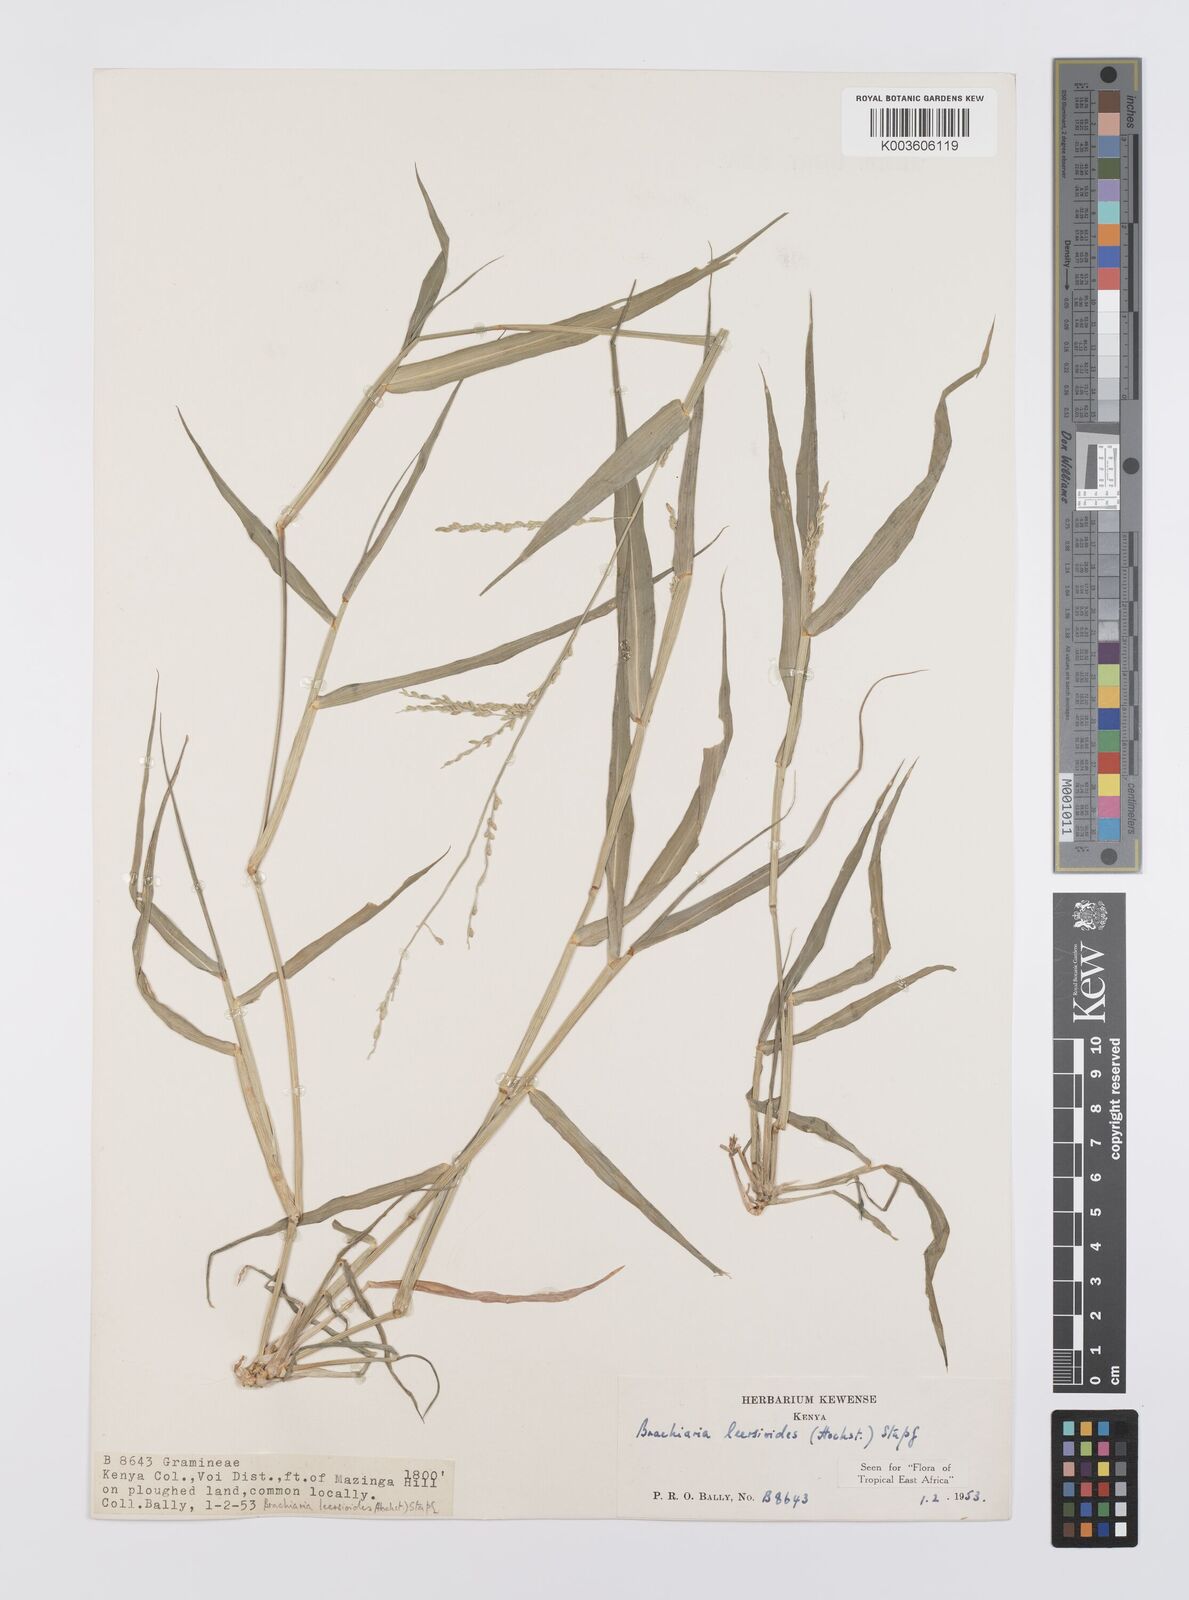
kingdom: Plantae
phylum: Tracheophyta
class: Liliopsida
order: Poales
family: Poaceae
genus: Urochloa
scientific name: Urochloa leersioides
